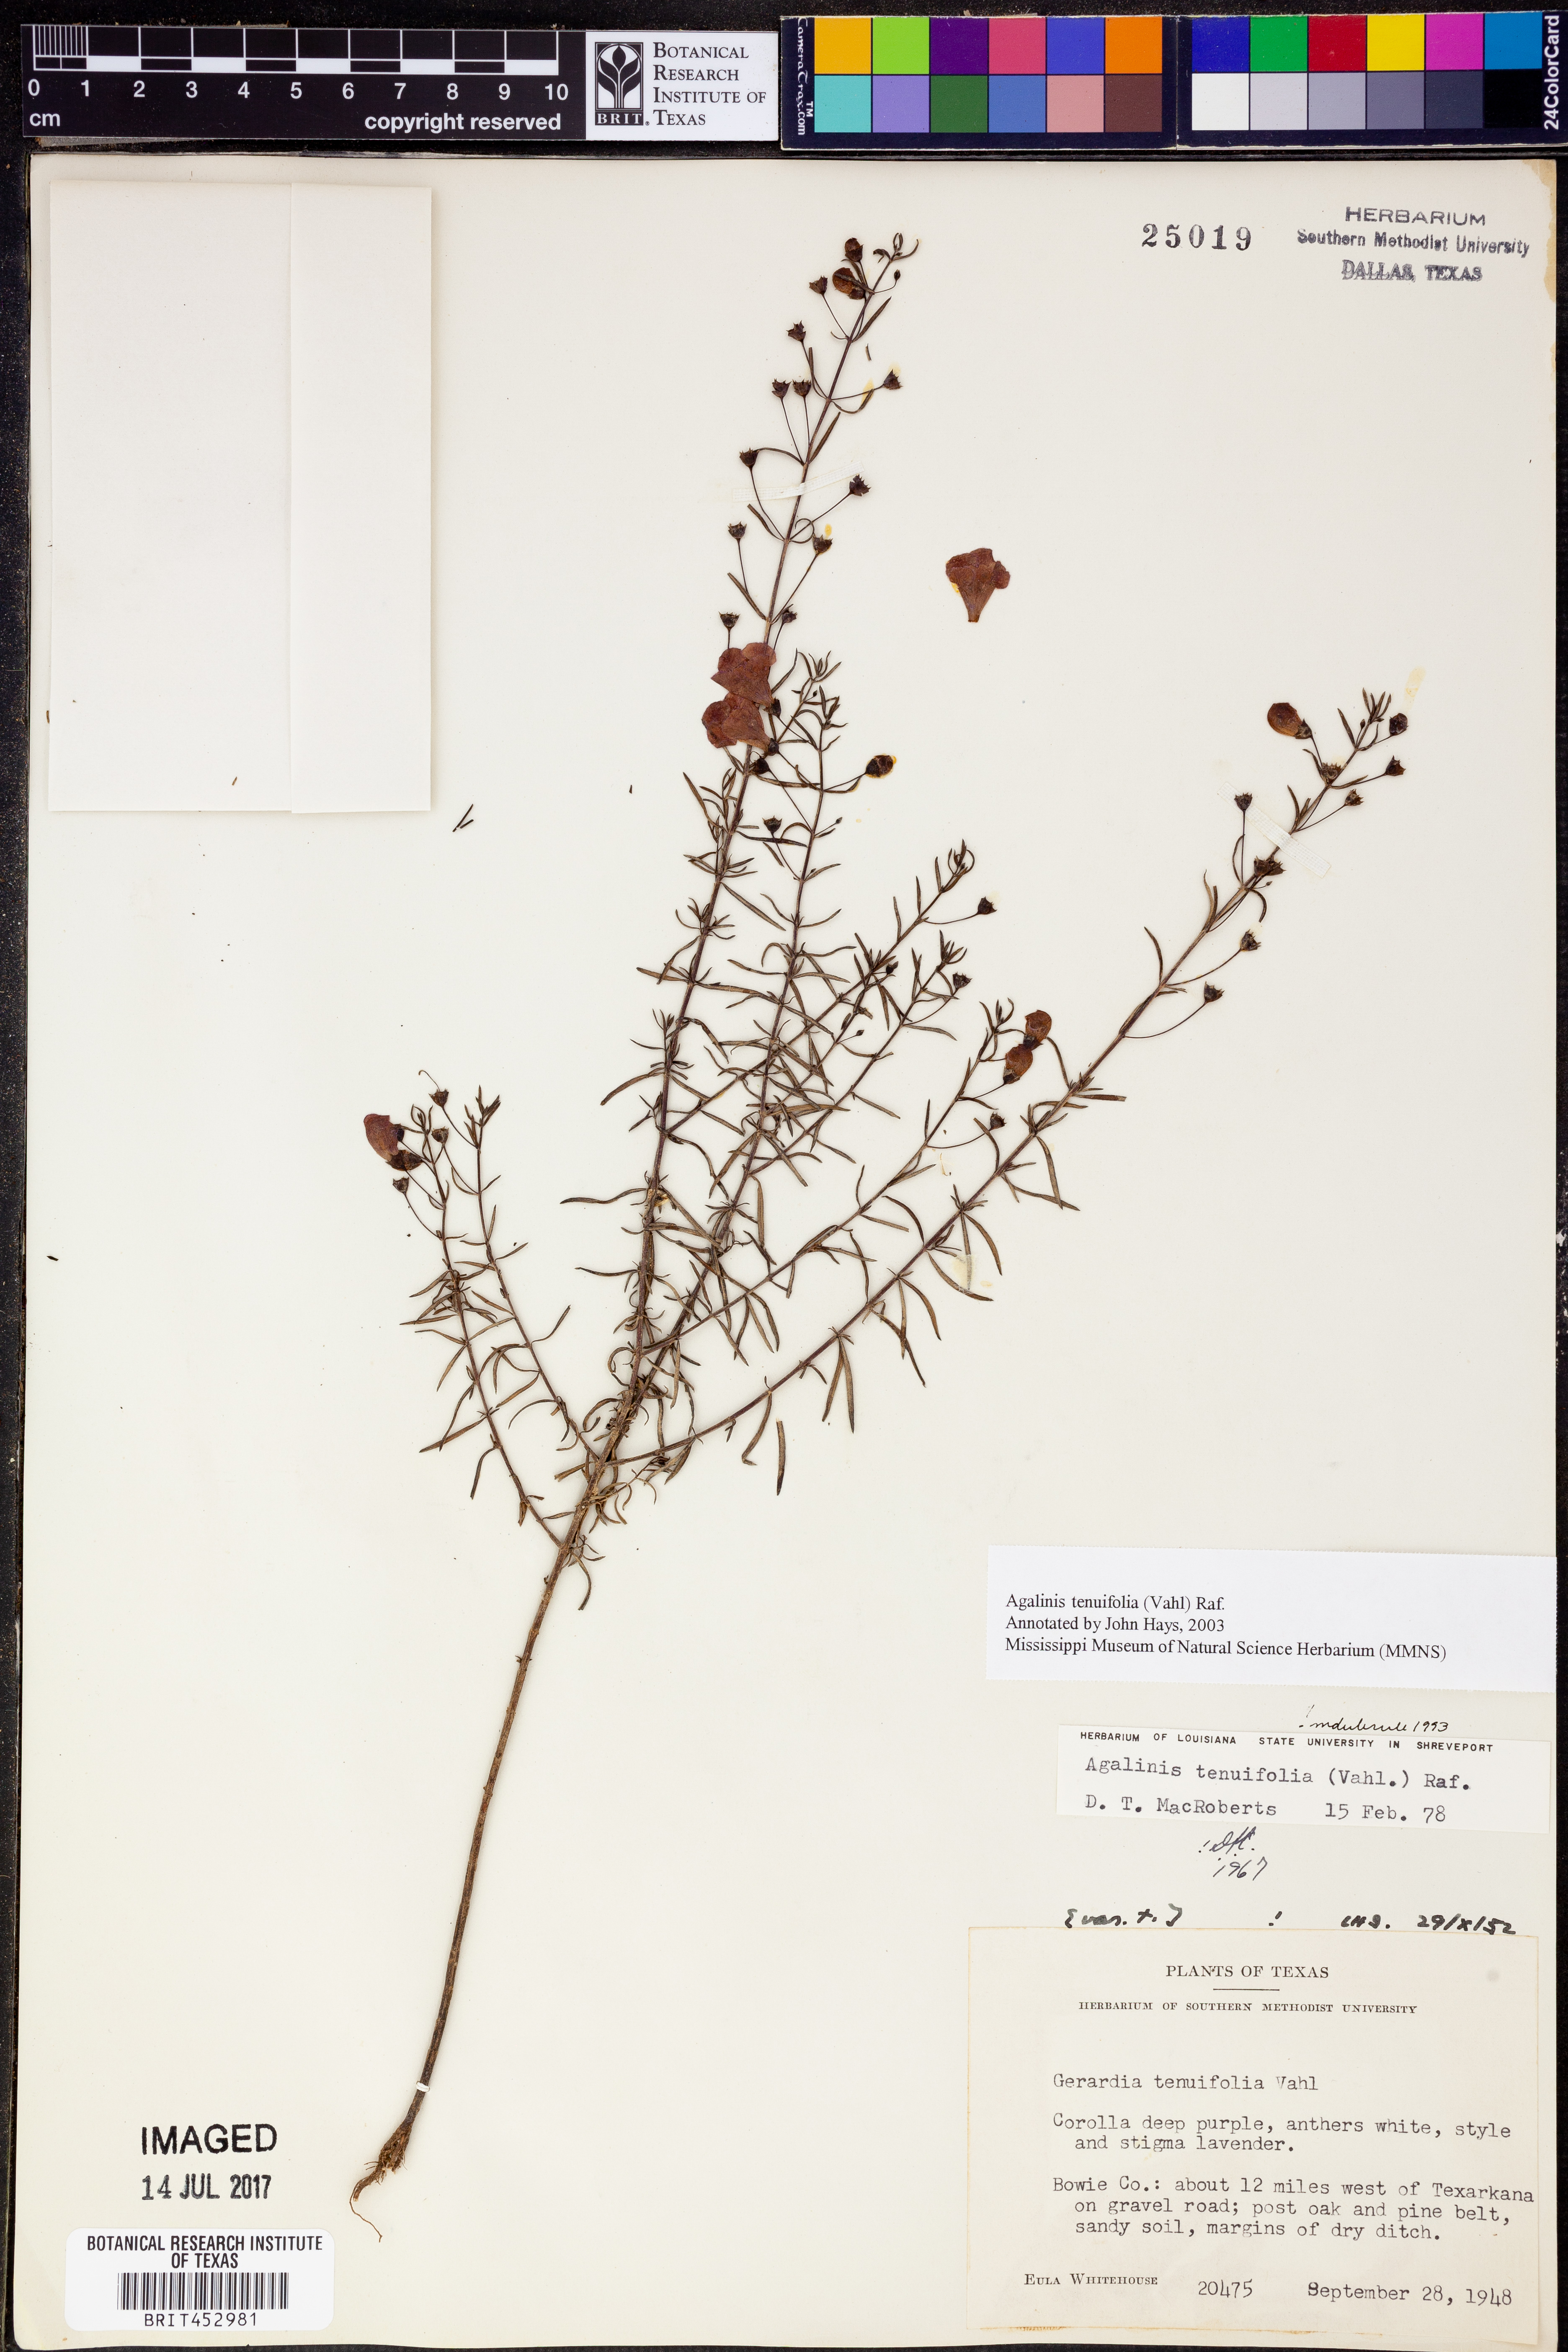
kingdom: Plantae
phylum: Tracheophyta
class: Magnoliopsida
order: Lamiales
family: Orobanchaceae
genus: Agalinis
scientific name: Agalinis tenuifolia
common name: Slender agalinis
